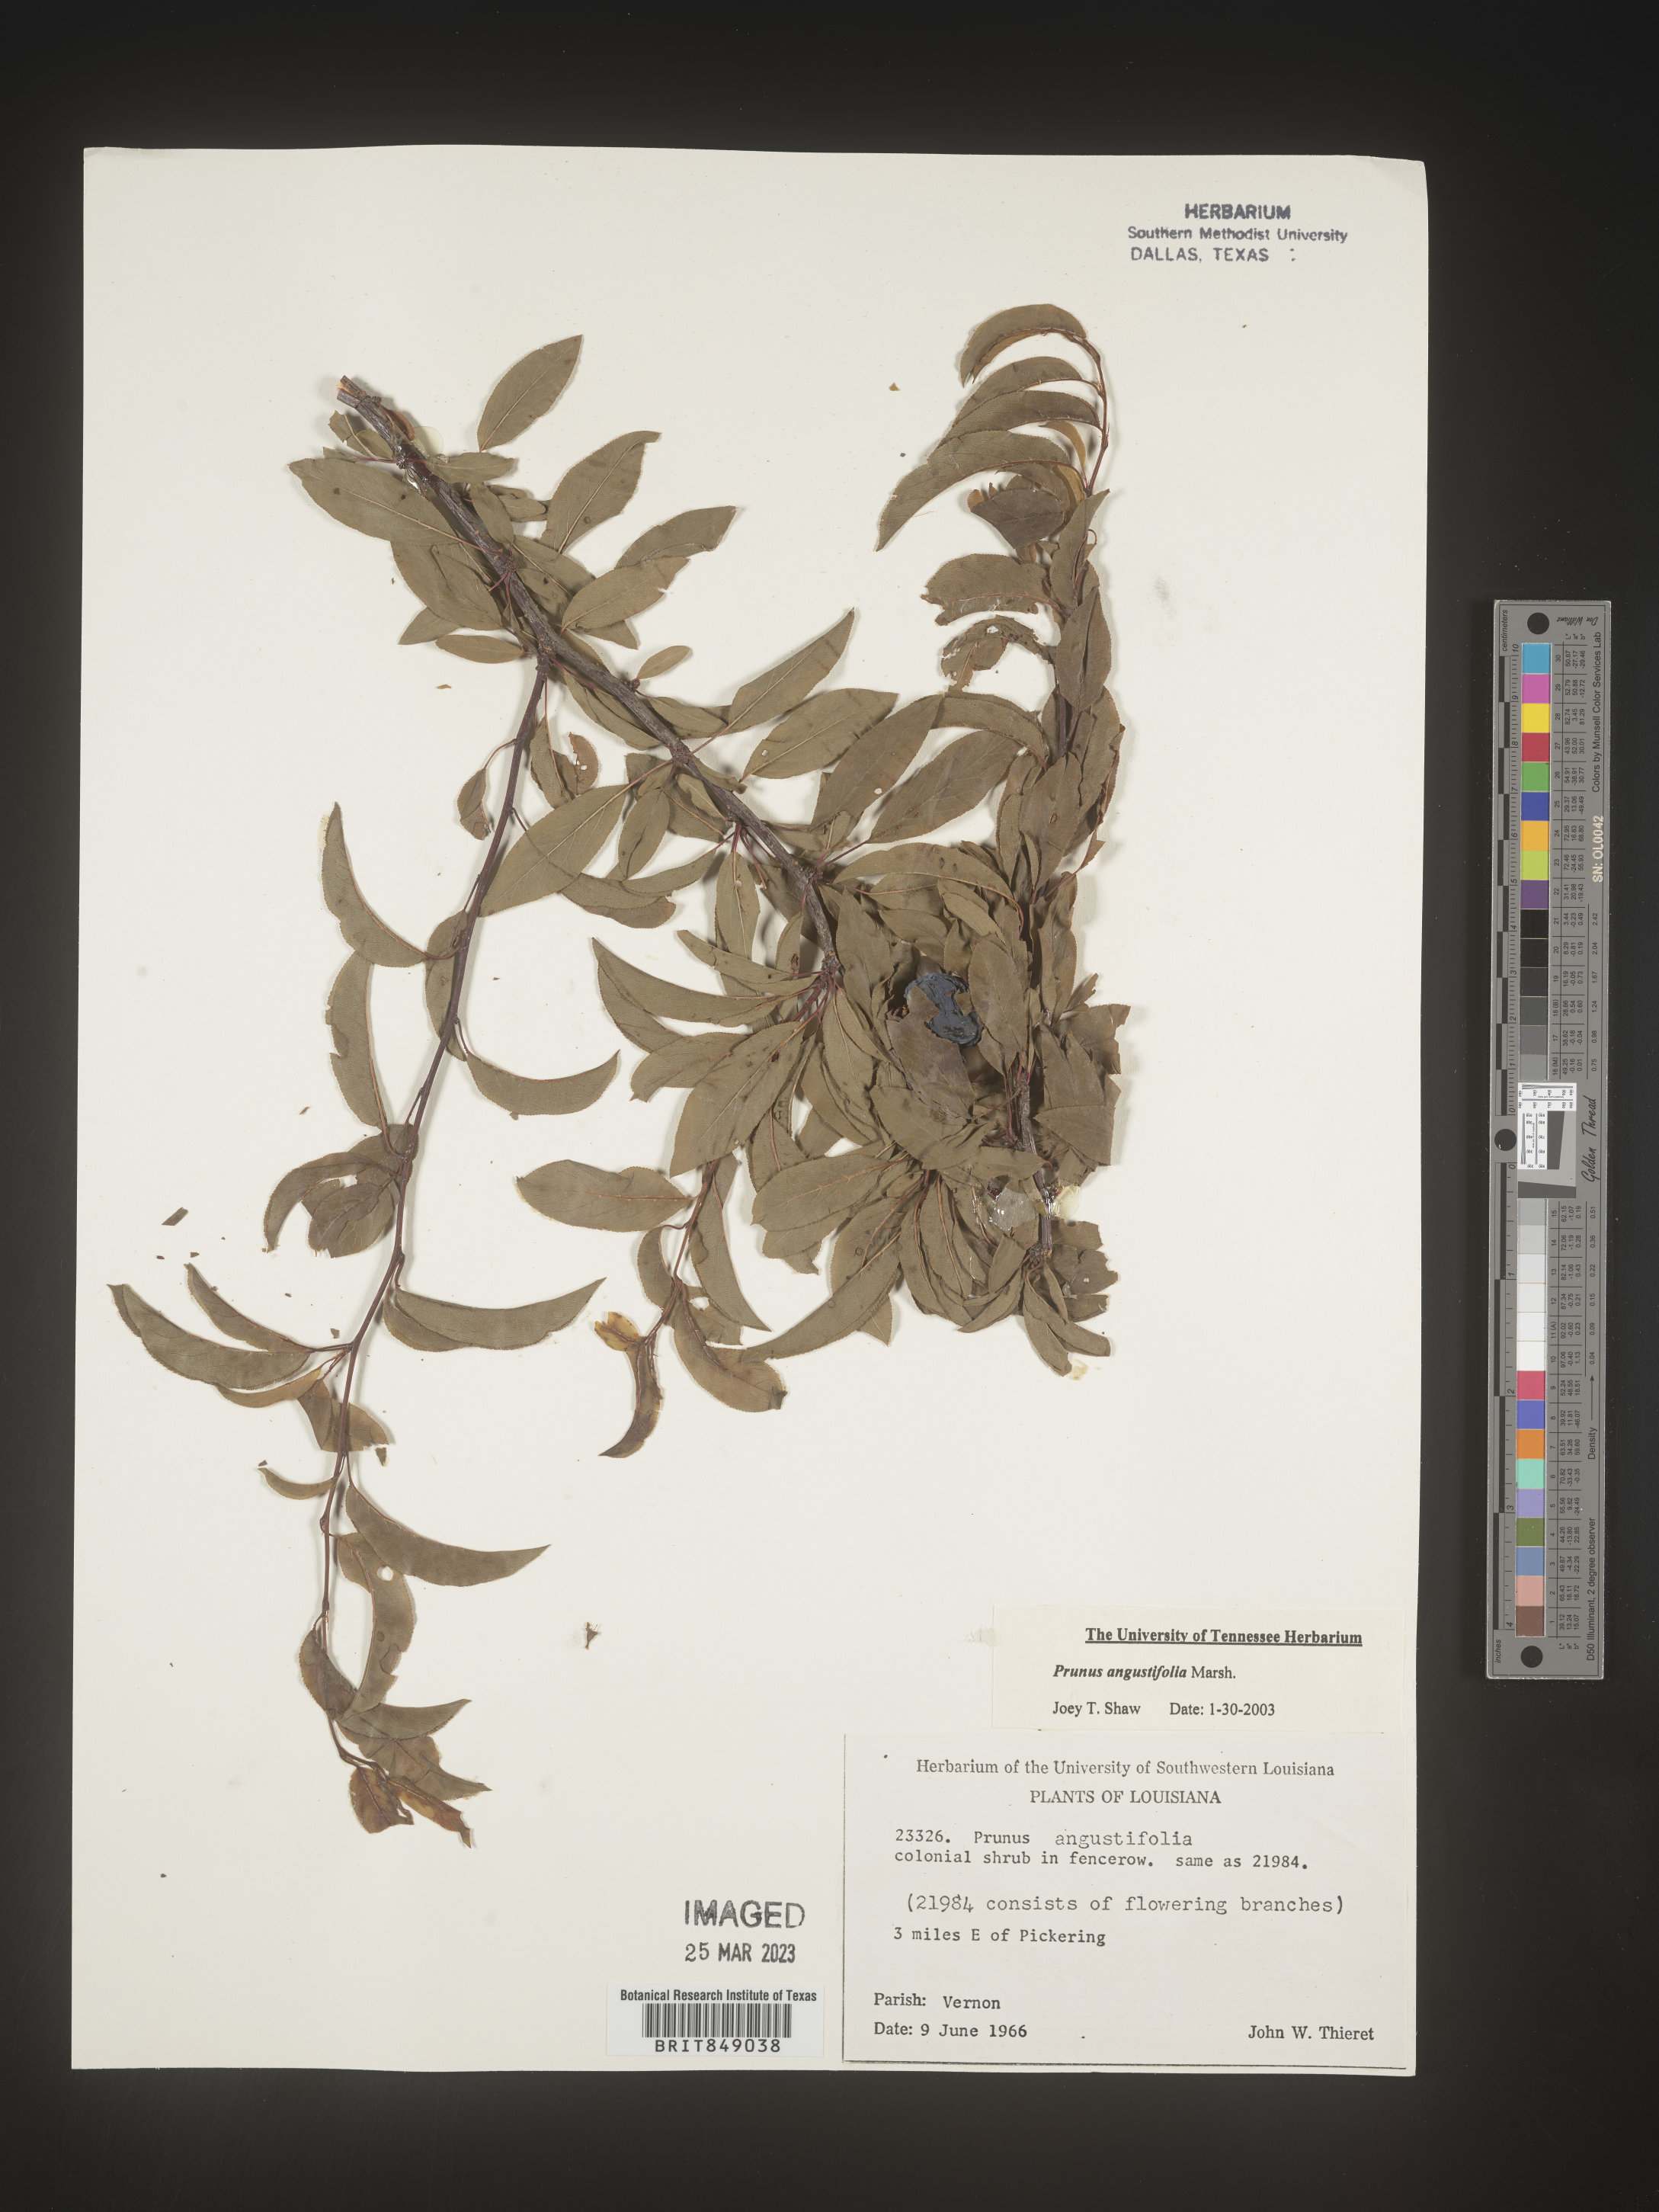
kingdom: Plantae
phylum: Tracheophyta
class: Magnoliopsida
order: Rosales
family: Rosaceae
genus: Prunus
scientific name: Prunus angustifolia
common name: Cherokee plum
